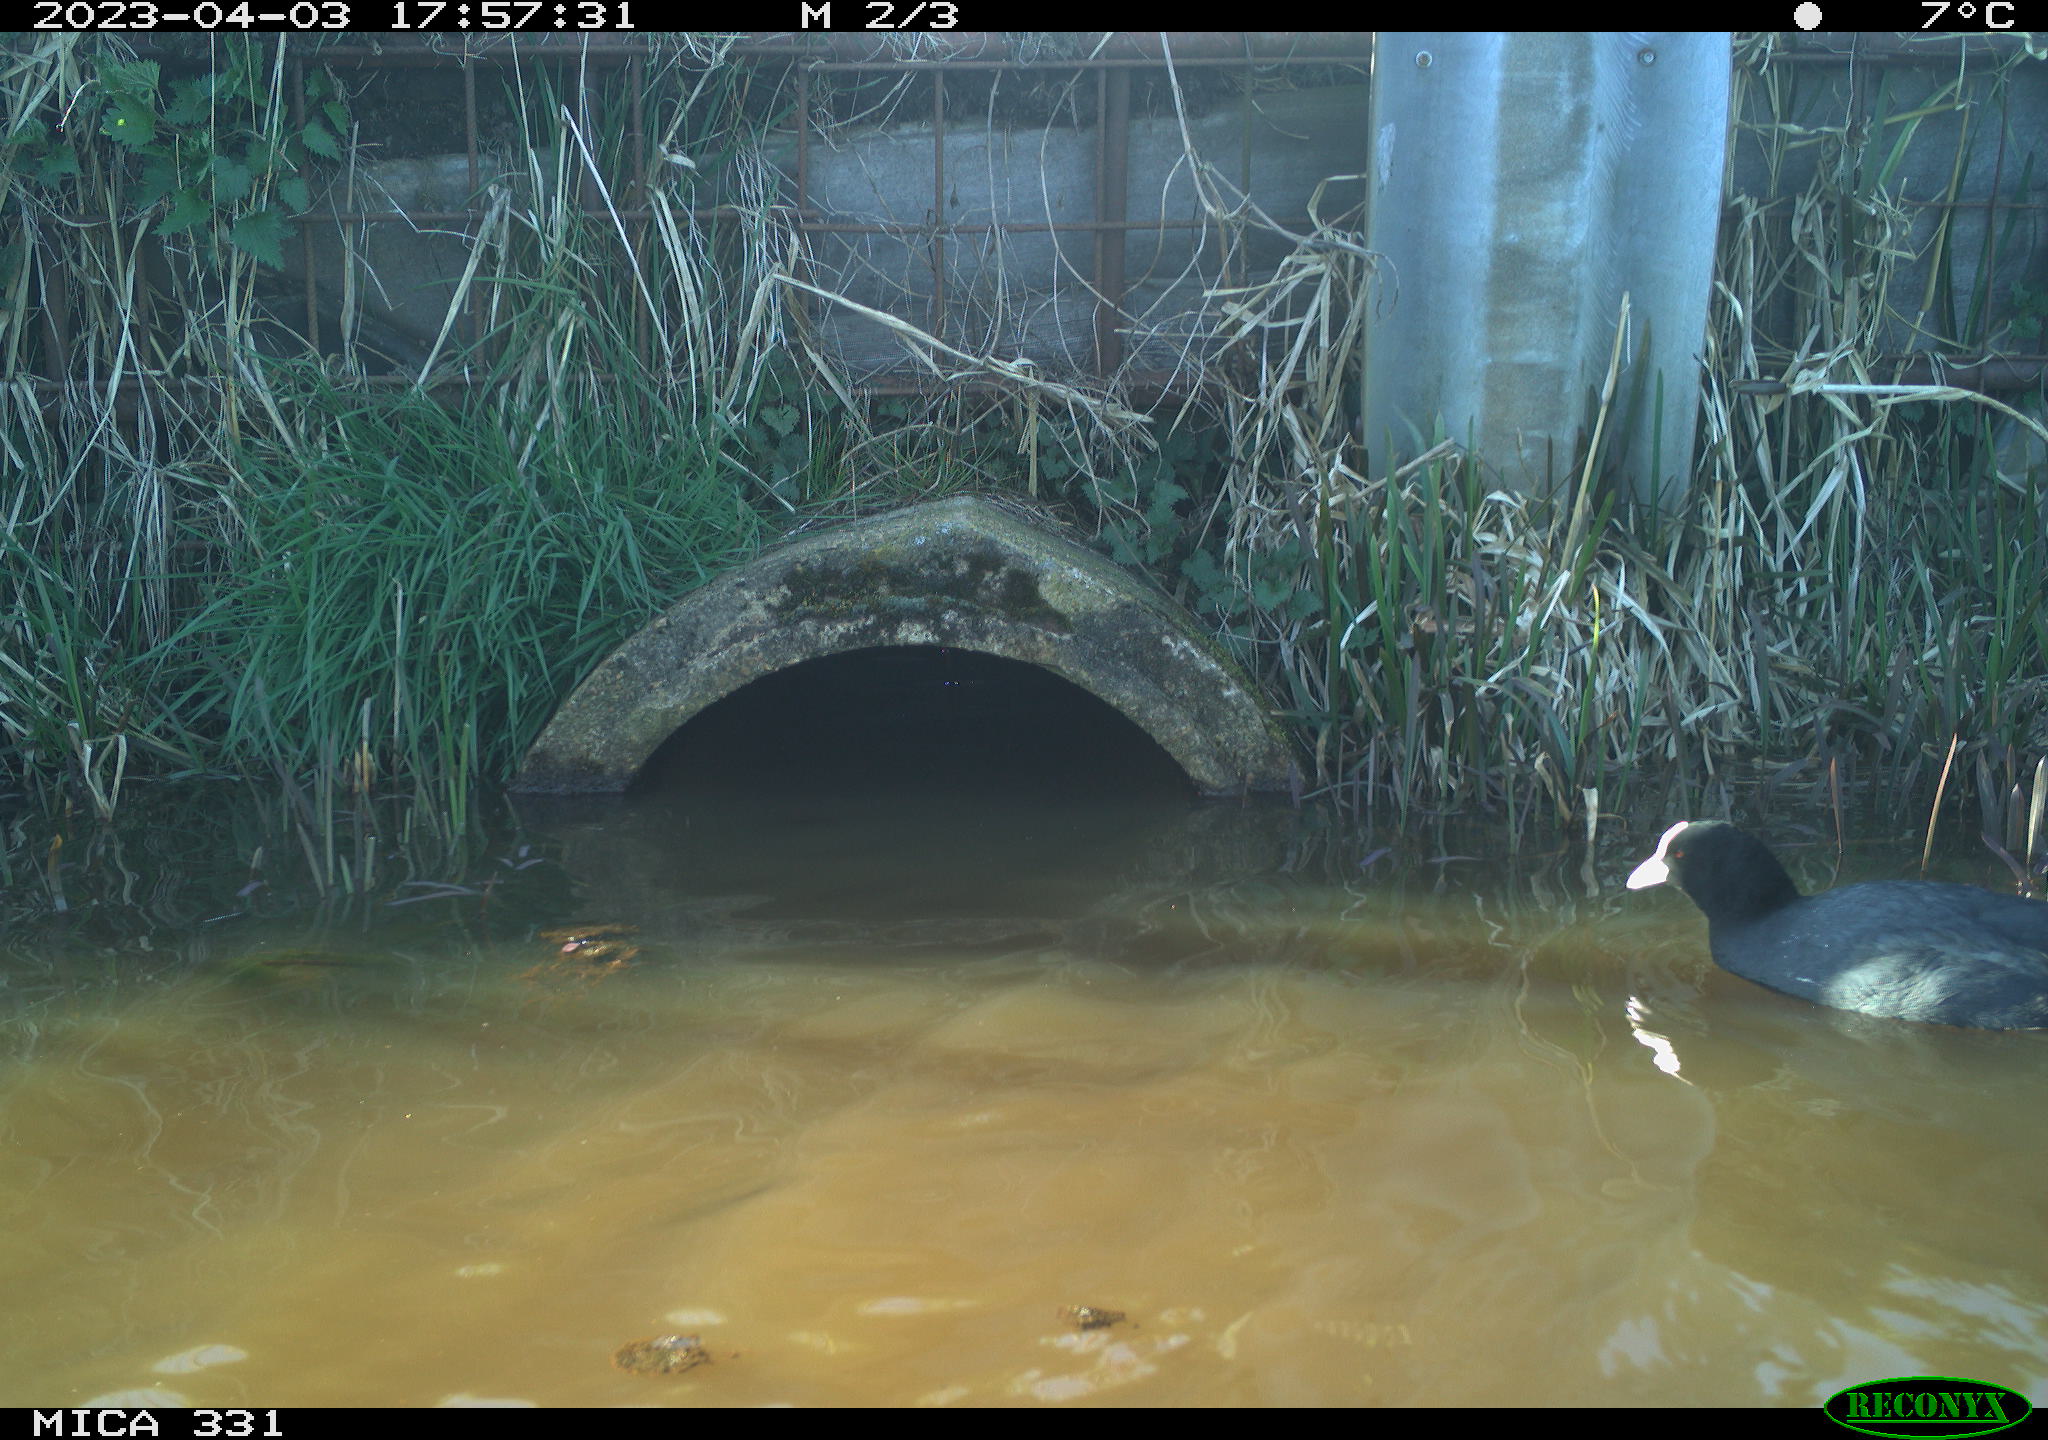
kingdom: Animalia
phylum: Chordata
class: Aves
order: Gruiformes
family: Rallidae
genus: Fulica
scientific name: Fulica atra
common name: Eurasian coot
